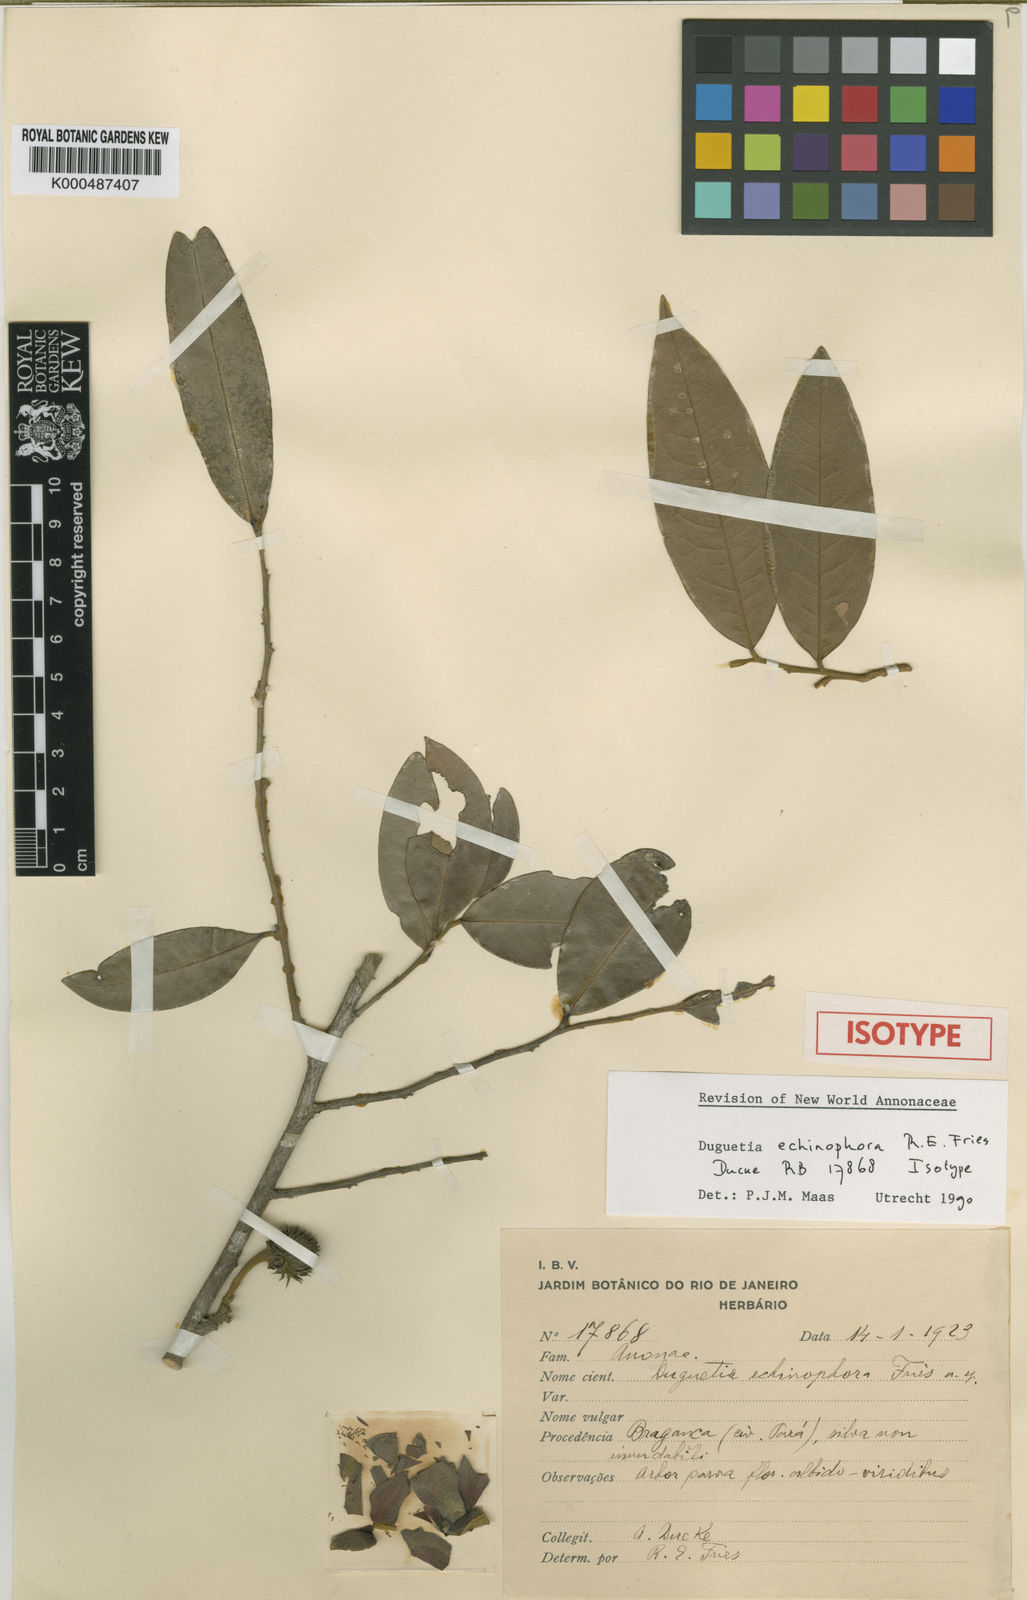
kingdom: Plantae
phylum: Tracheophyta
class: Magnoliopsida
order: Magnoliales
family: Annonaceae
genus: Duguetia
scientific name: Duguetia echinophora
